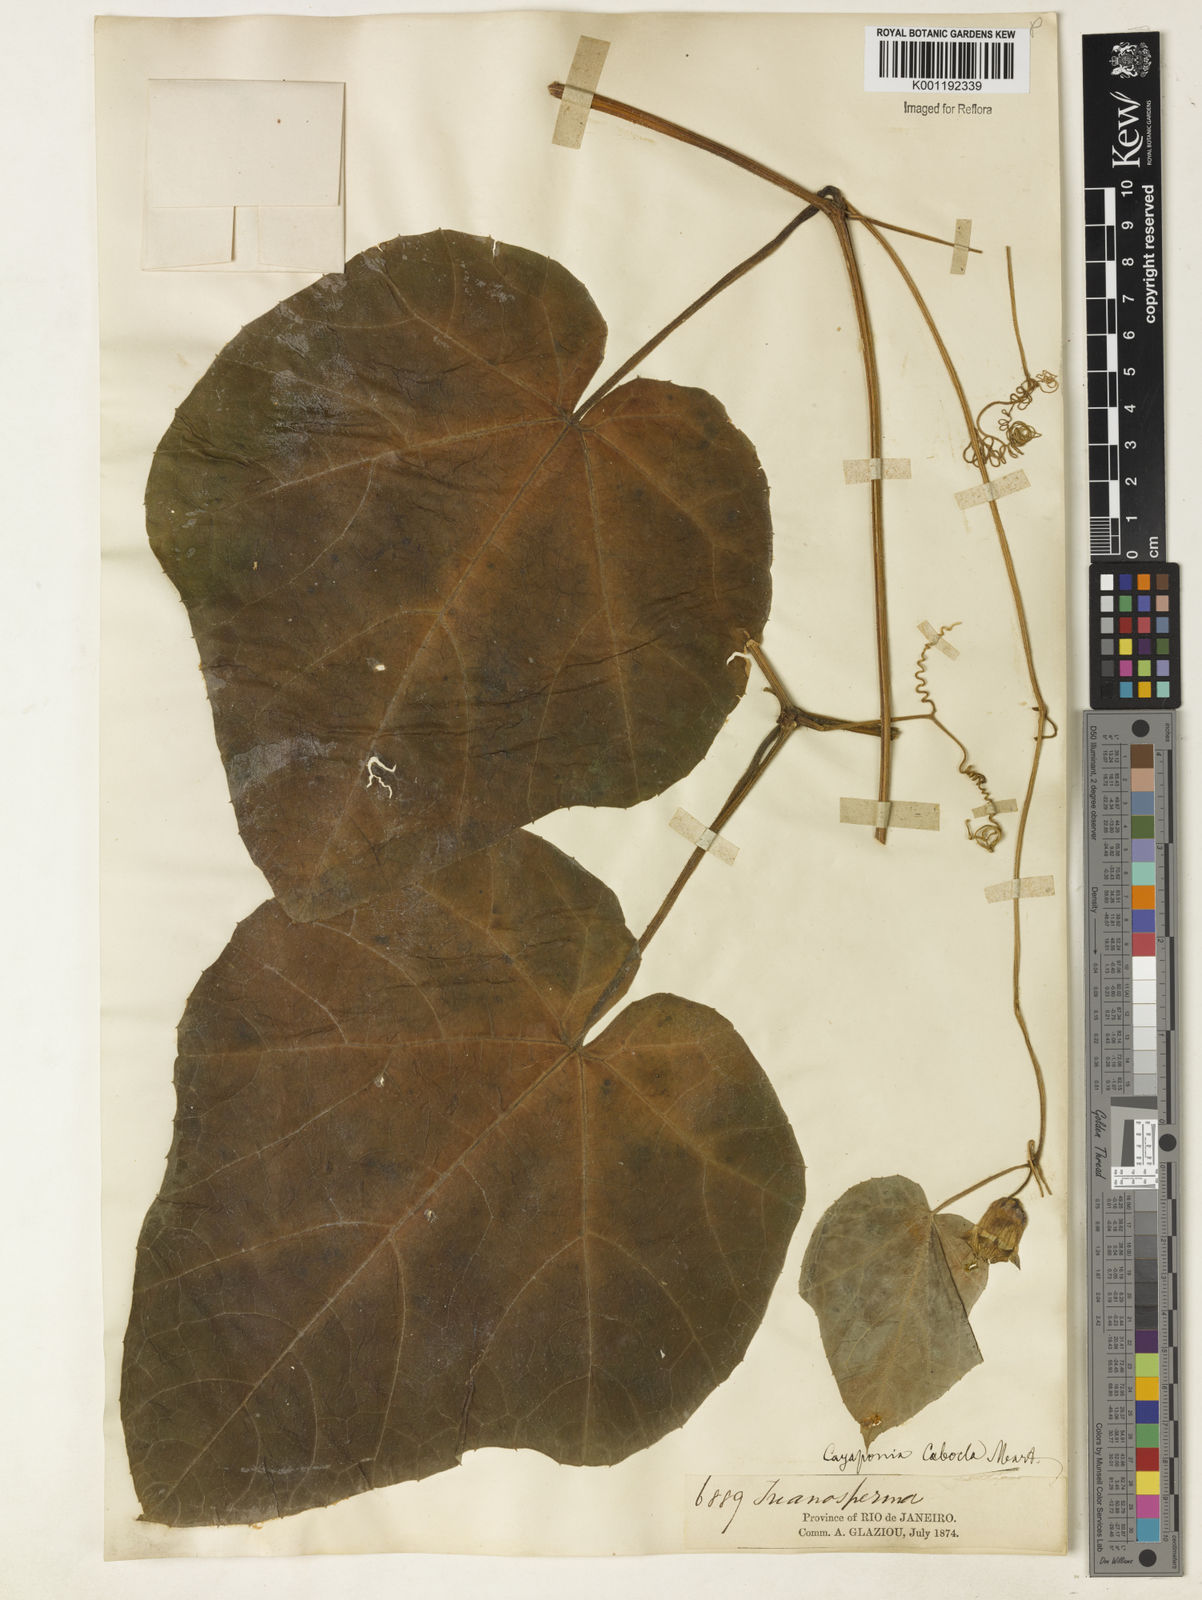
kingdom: Plantae
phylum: Tracheophyta
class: Magnoliopsida
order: Cucurbitales
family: Cucurbitaceae
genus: Cayaponia
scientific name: Cayaponia cabocla
